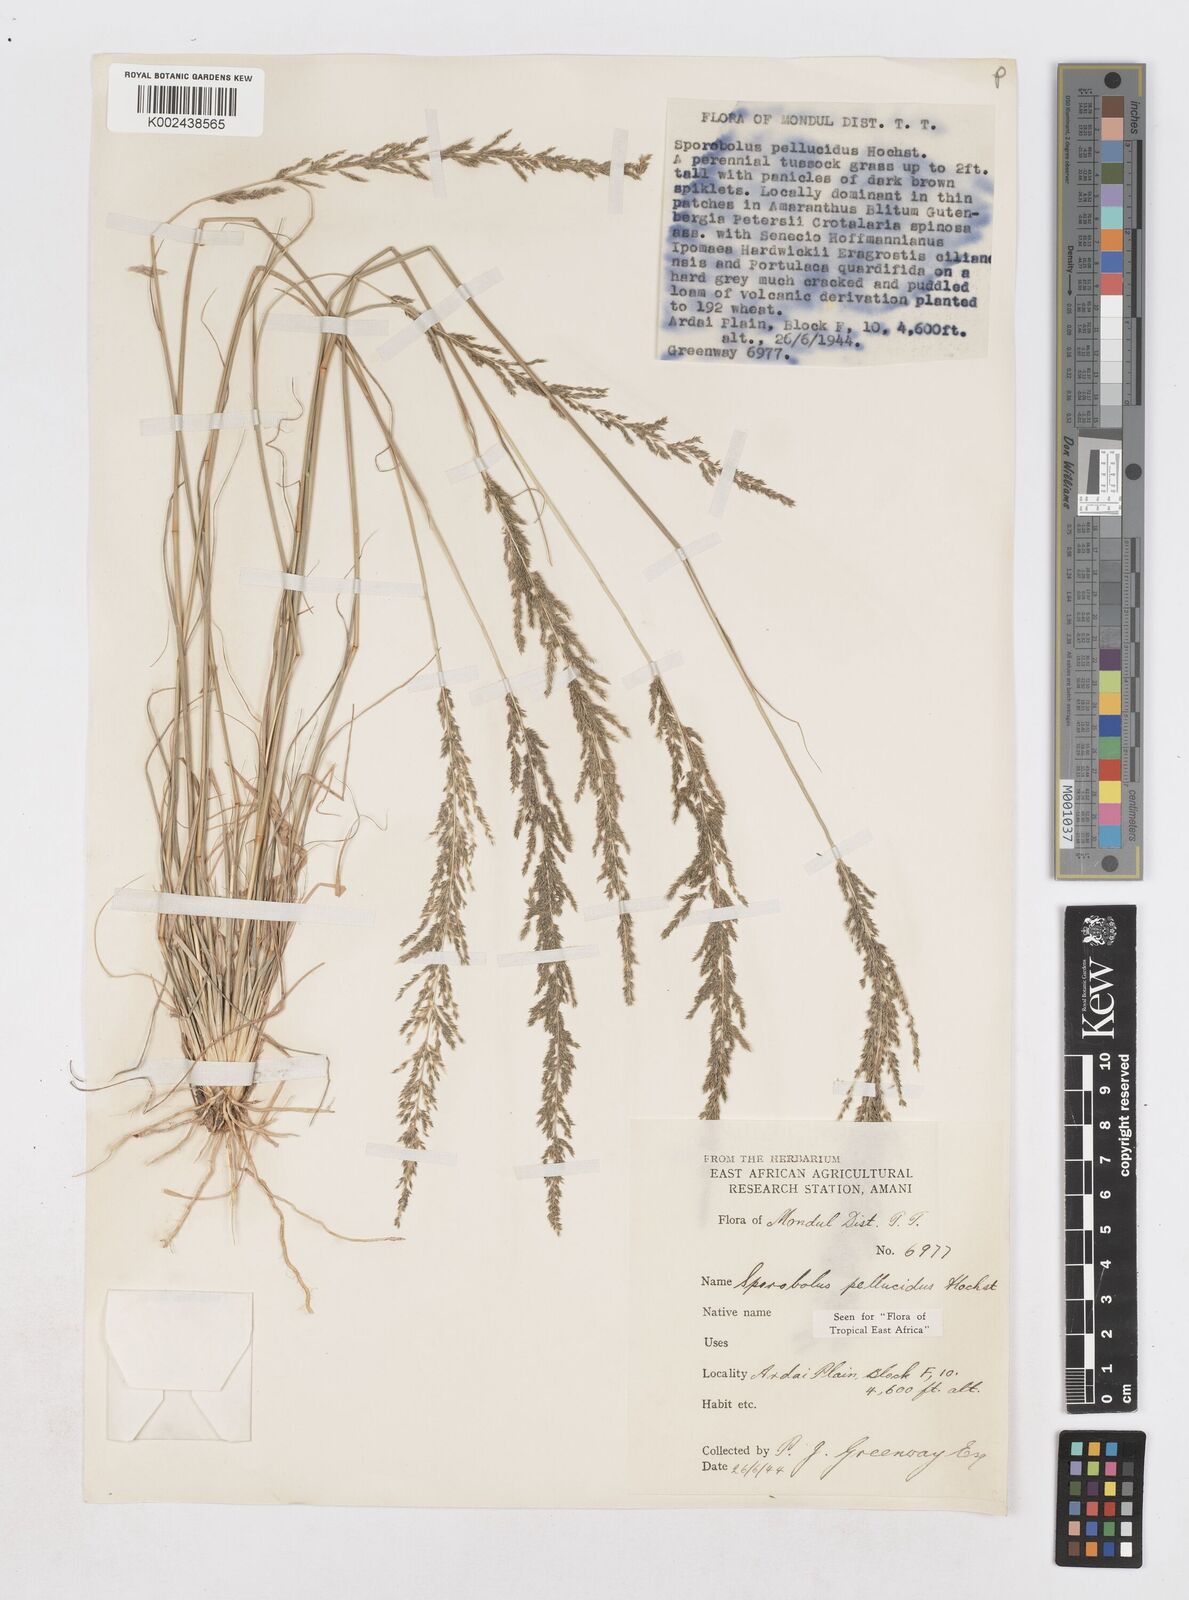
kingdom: Plantae
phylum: Tracheophyta
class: Liliopsida
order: Poales
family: Poaceae
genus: Sporobolus
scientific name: Sporobolus pellucidus
